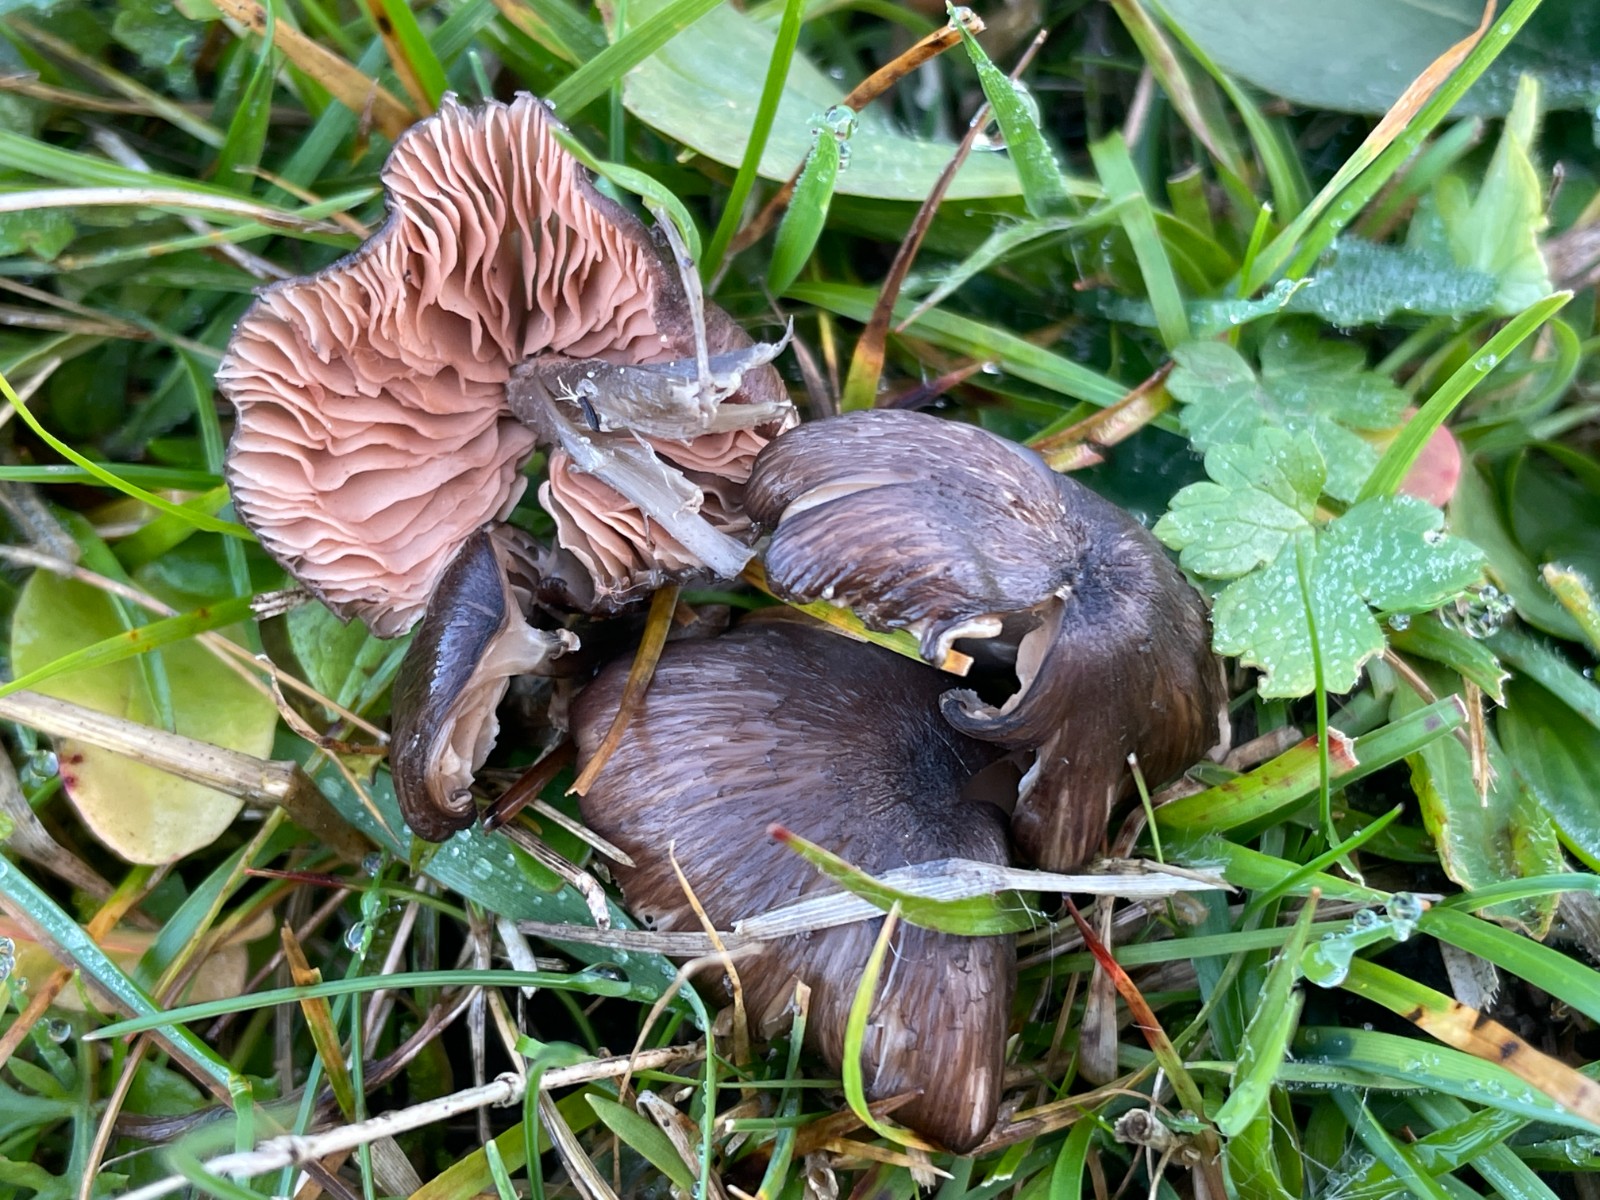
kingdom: Fungi
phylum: Basidiomycota
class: Agaricomycetes
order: Agaricales
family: Entolomataceae
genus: Entoloma
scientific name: Entoloma
